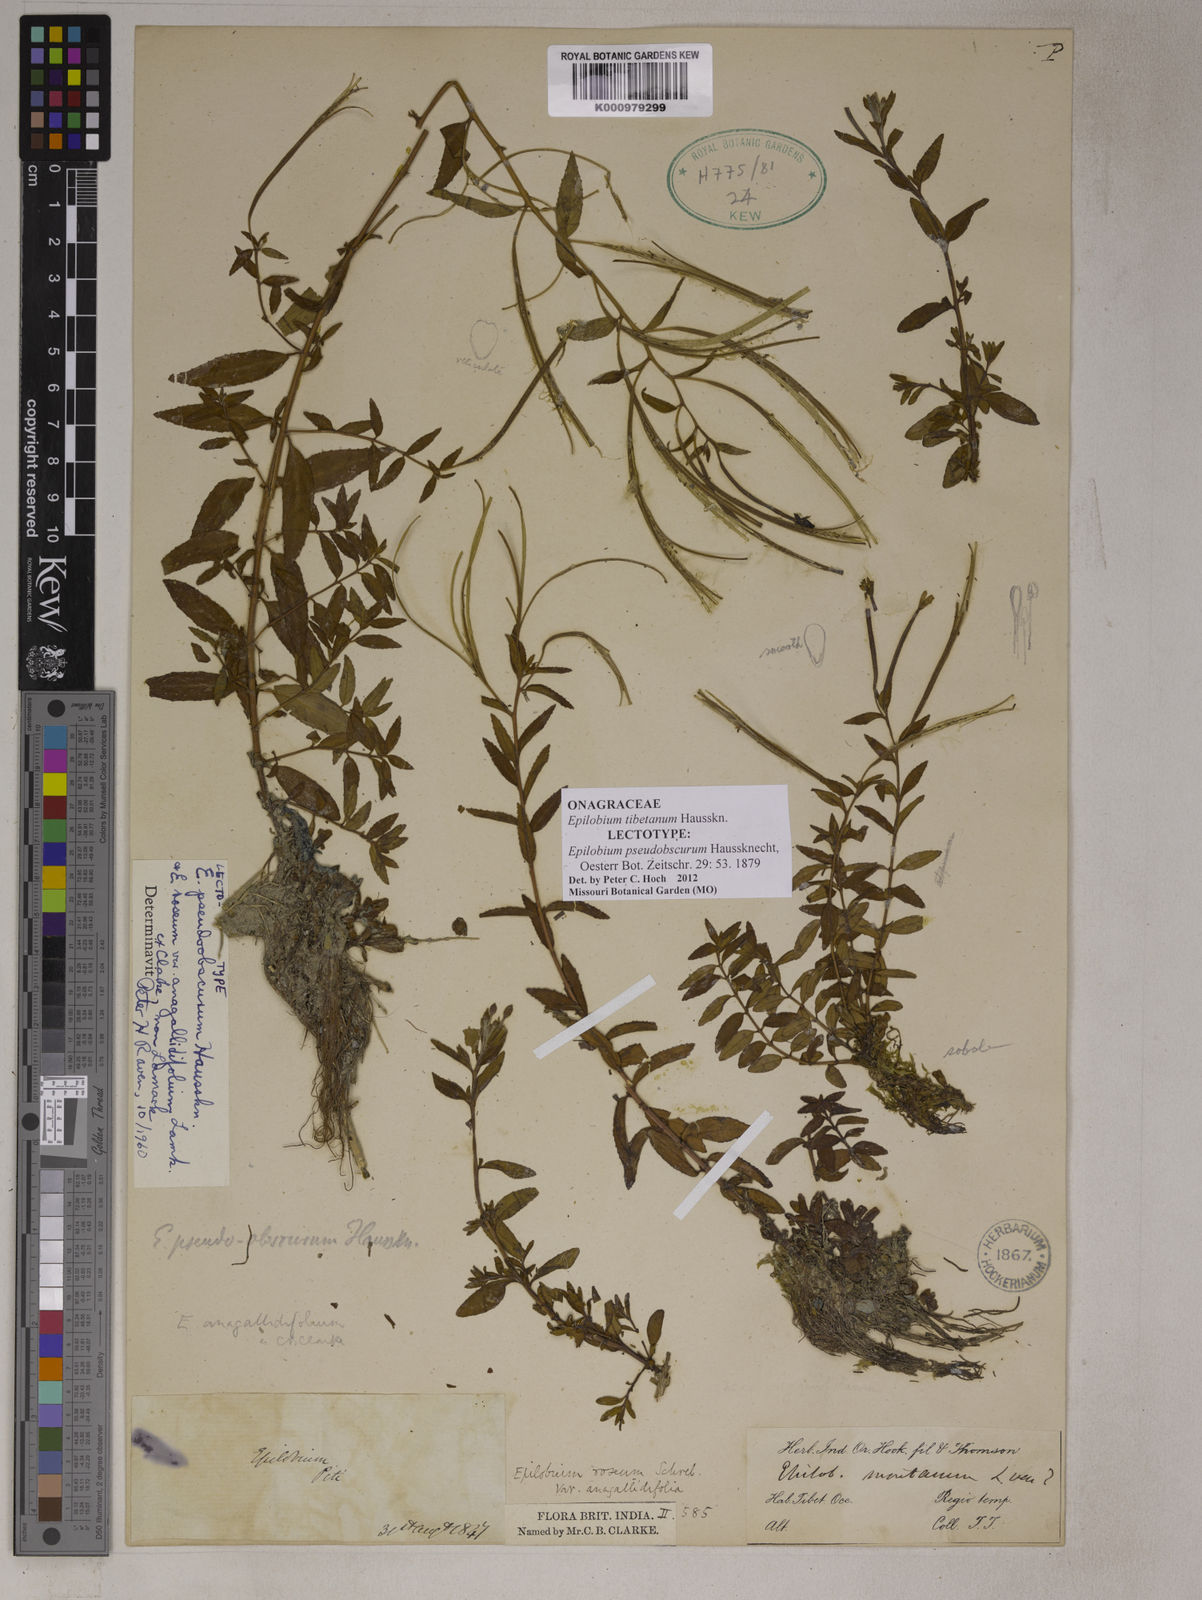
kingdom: Plantae
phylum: Tracheophyta
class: Magnoliopsida
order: Myrtales
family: Onagraceae
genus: Epilobium
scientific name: Epilobium tibetanum
